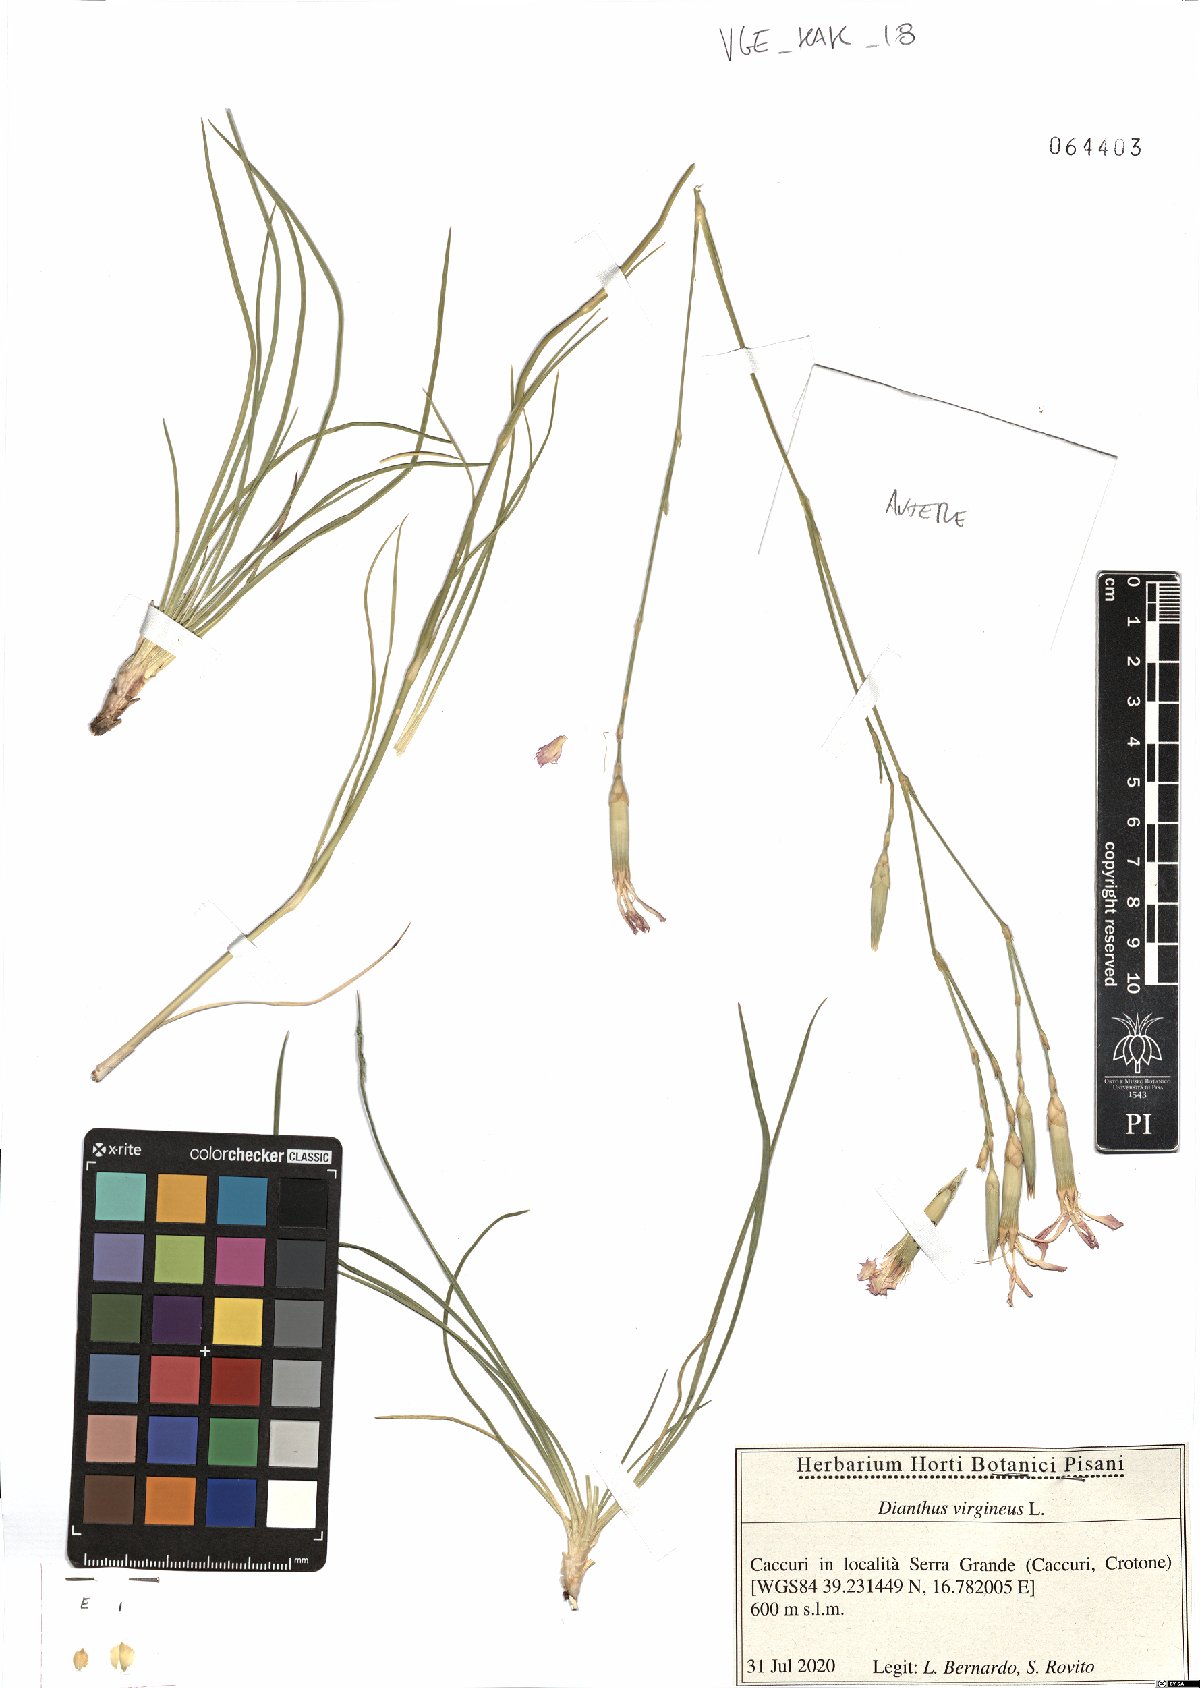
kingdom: Plantae
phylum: Tracheophyta
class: Magnoliopsida
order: Caryophyllales
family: Caryophyllaceae
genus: Dianthus
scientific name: Dianthus virgineus
